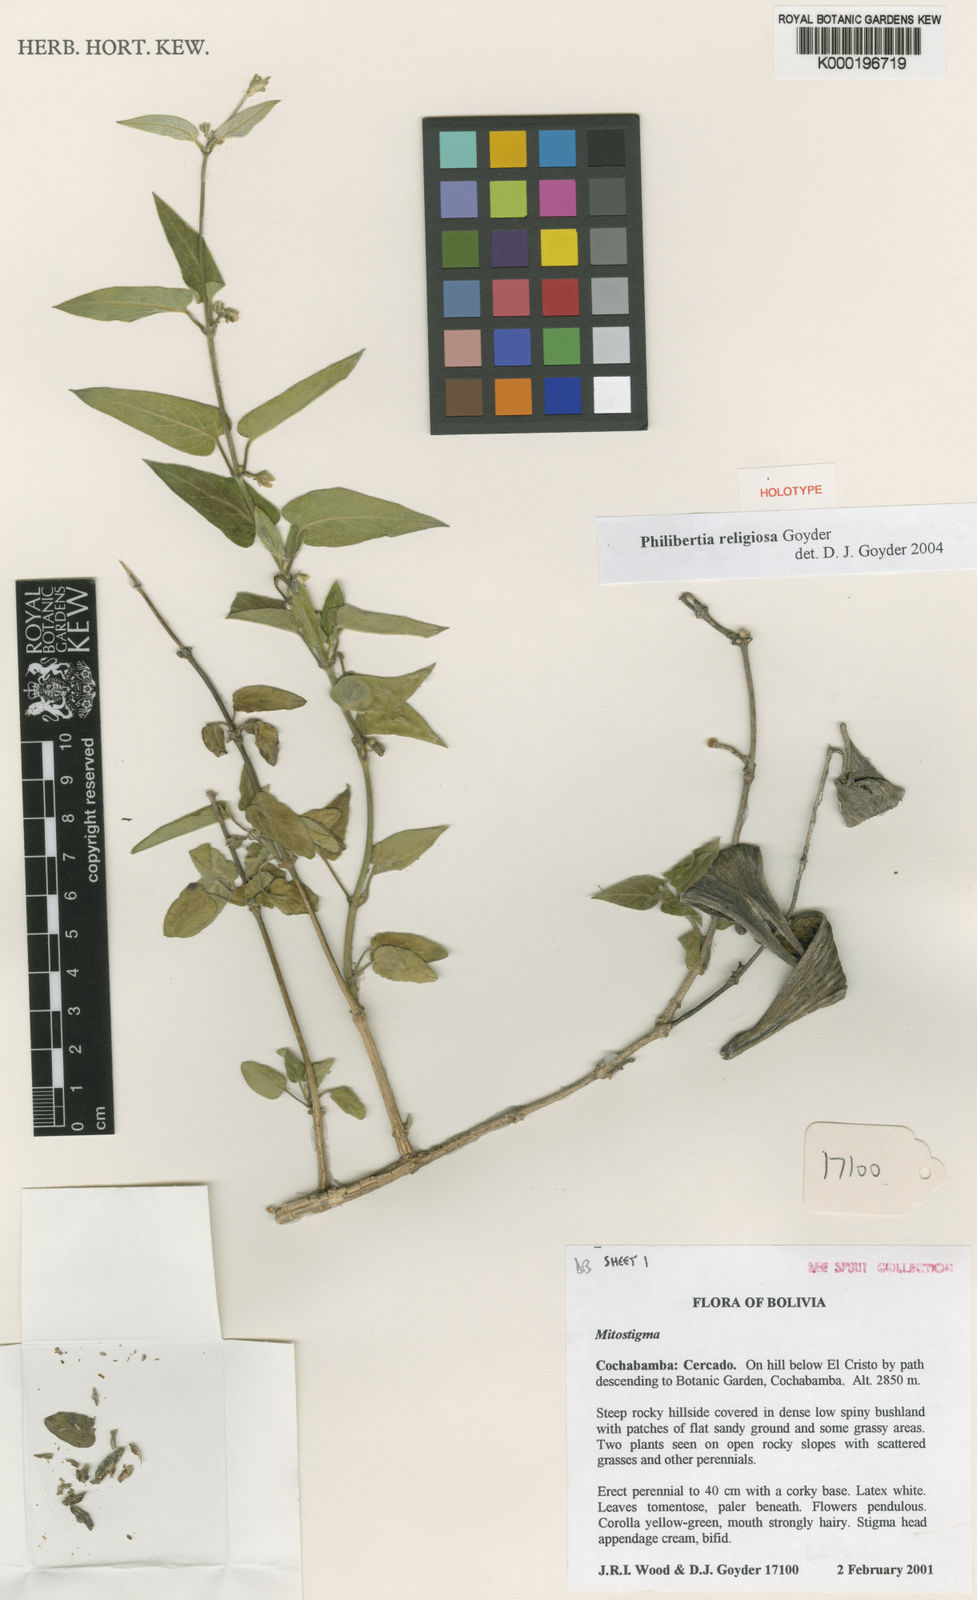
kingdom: Plantae
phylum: Tracheophyta
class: Magnoliopsida
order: Gentianales
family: Apocynaceae
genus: Philibertia
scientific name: Philibertia religiosa
